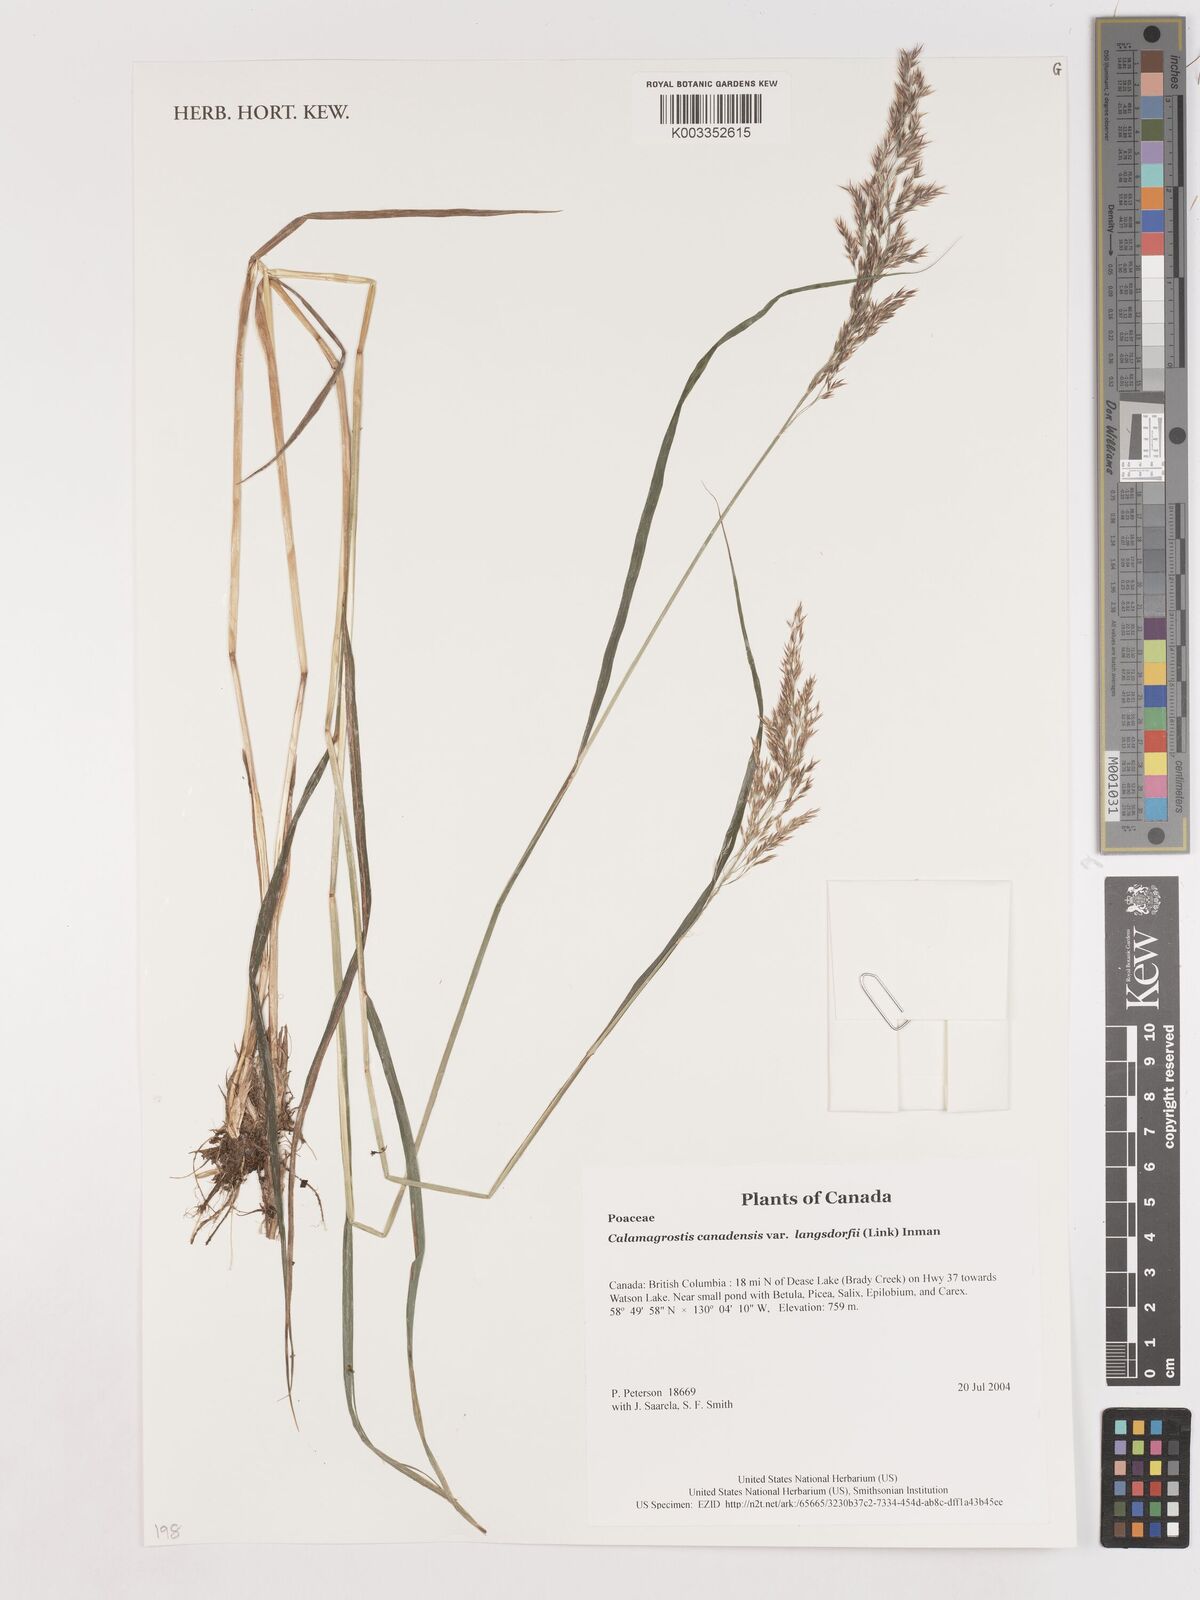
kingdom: Plantae
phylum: Tracheophyta
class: Liliopsida
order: Poales
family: Poaceae
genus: Calamagrostis
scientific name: Calamagrostis canadensis
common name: Canada bluejoint
